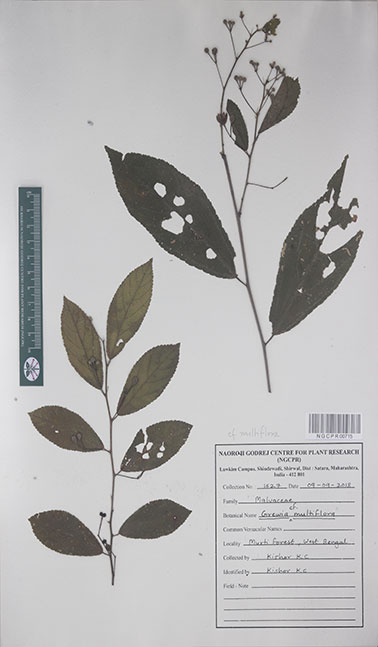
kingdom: Plantae
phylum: Tracheophyta
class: Magnoliopsida
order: Malvales
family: Malvaceae
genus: Grewia
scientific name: Grewia multiflora
